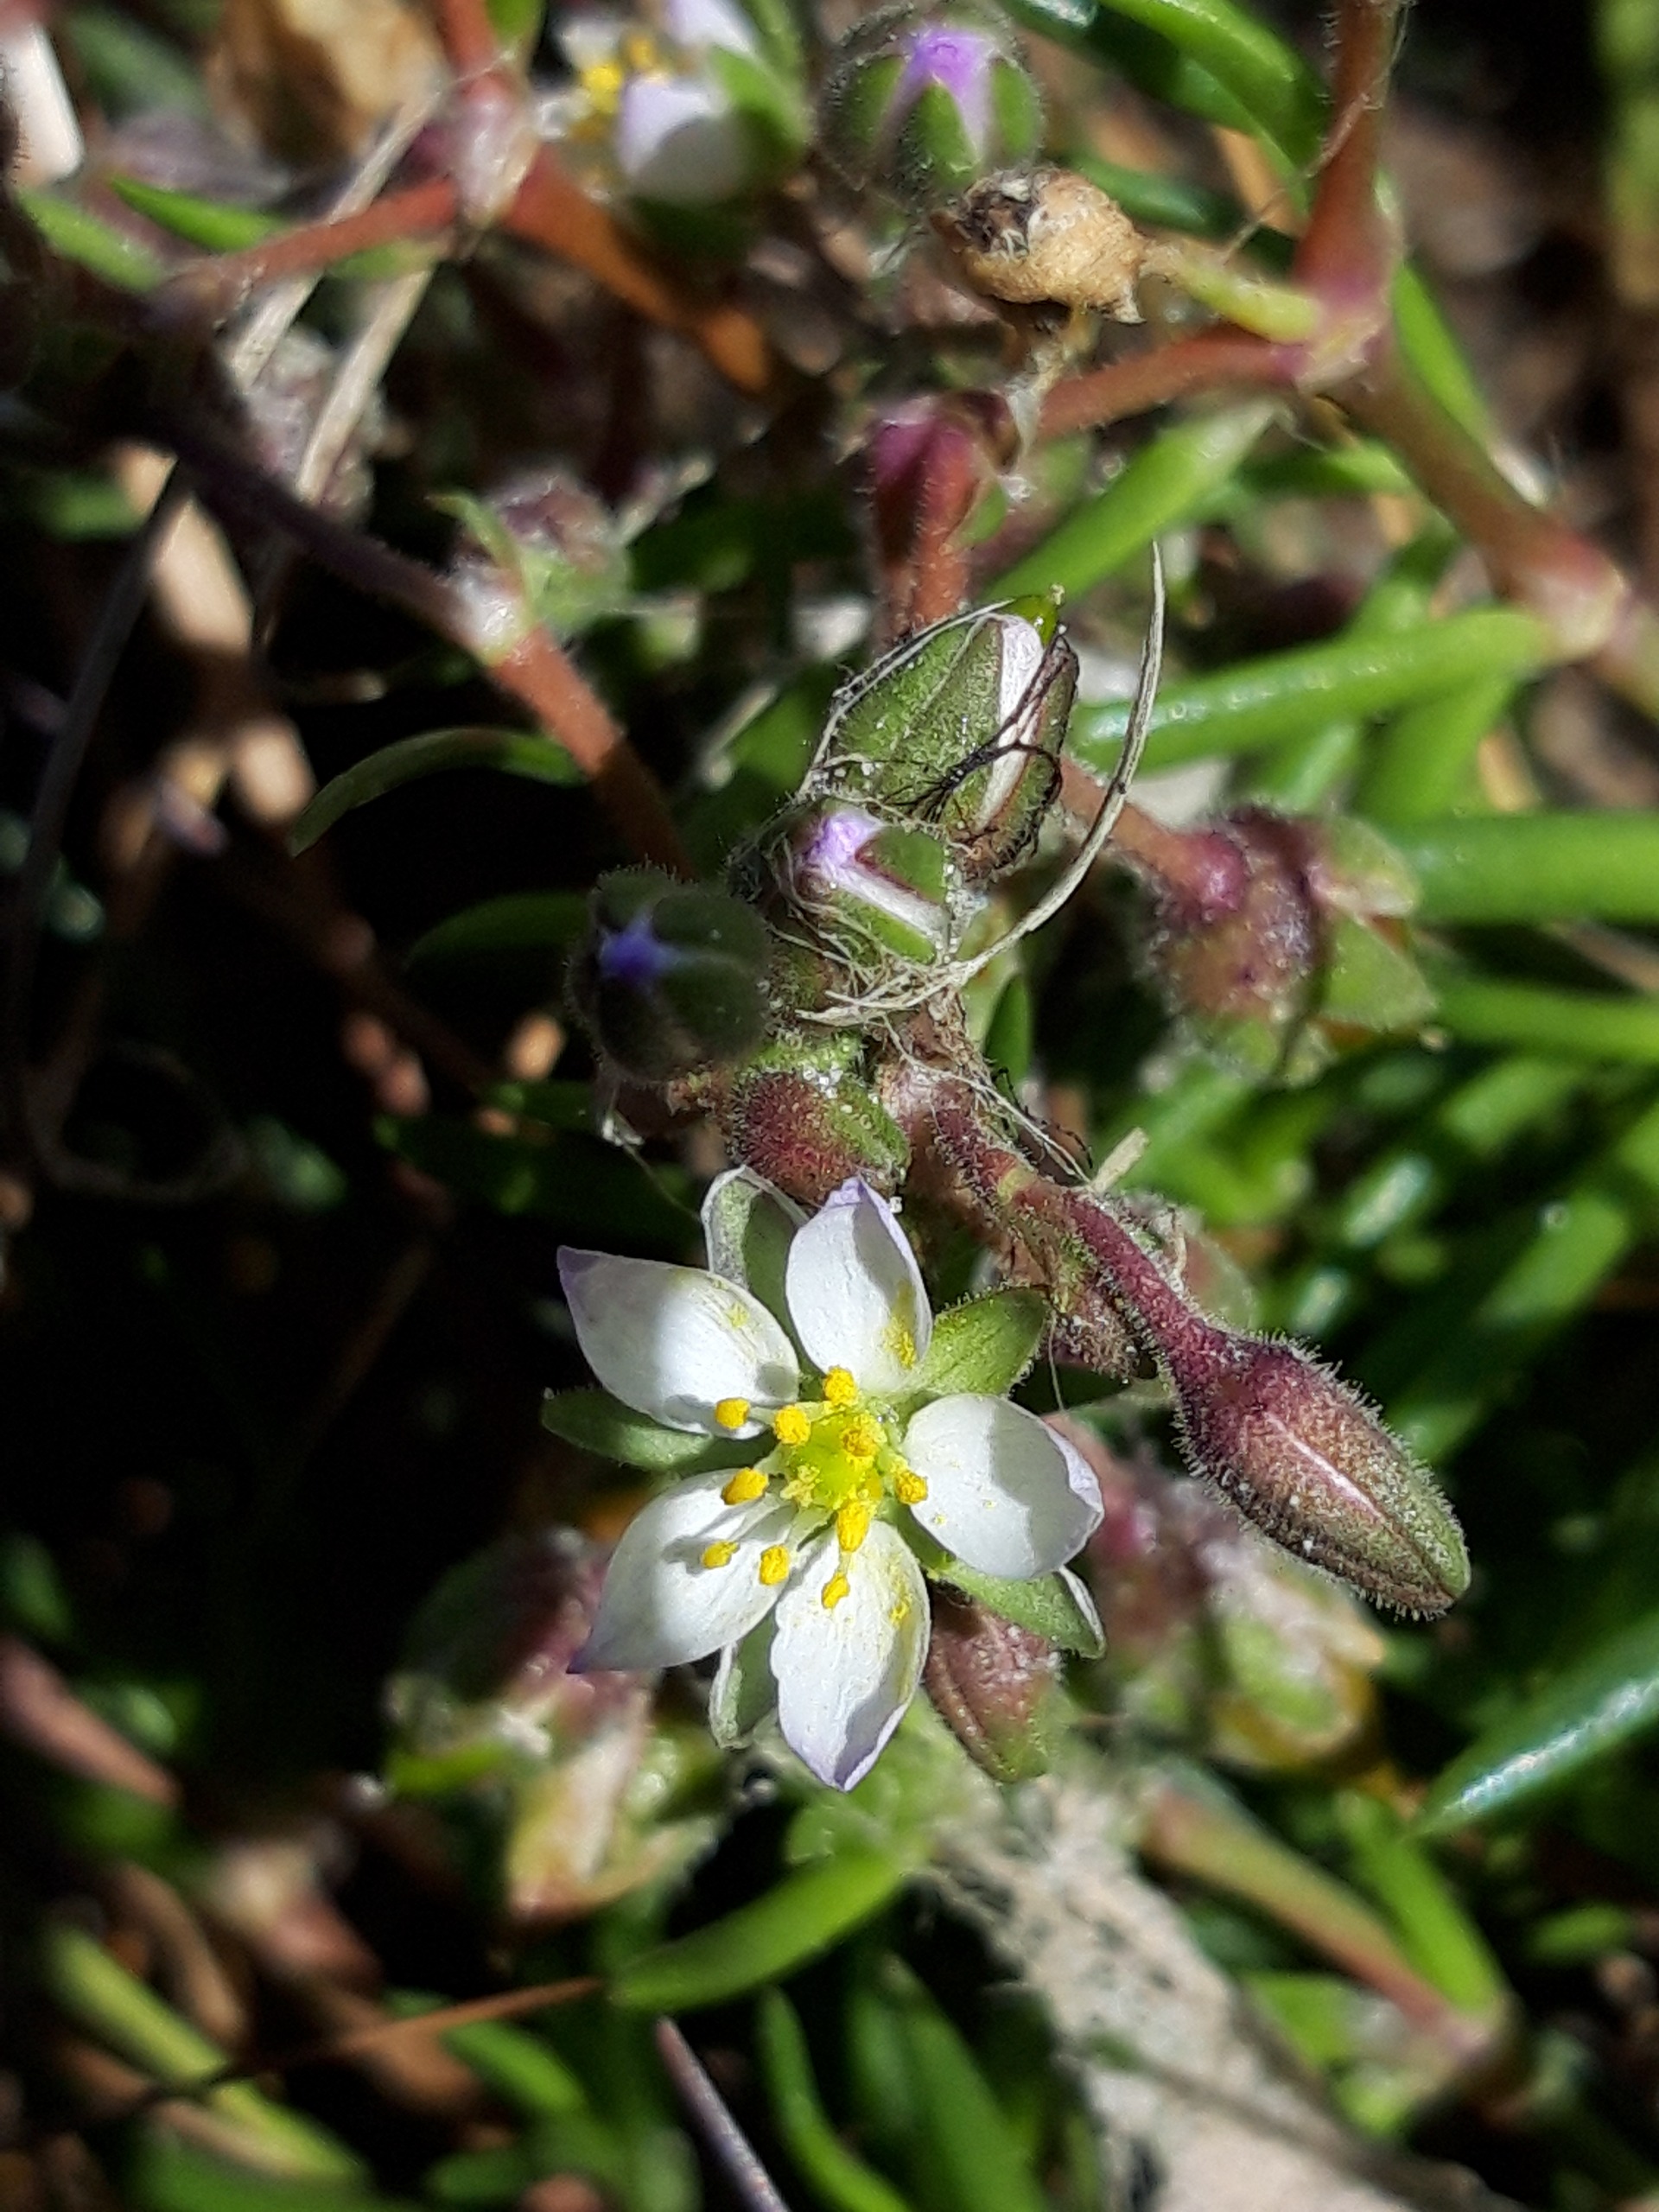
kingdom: Plantae
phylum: Tracheophyta
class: Magnoliopsida
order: Caryophyllales
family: Caryophyllaceae
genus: Spergularia
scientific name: Spergularia media
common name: Vingefrøet hindeknæ
